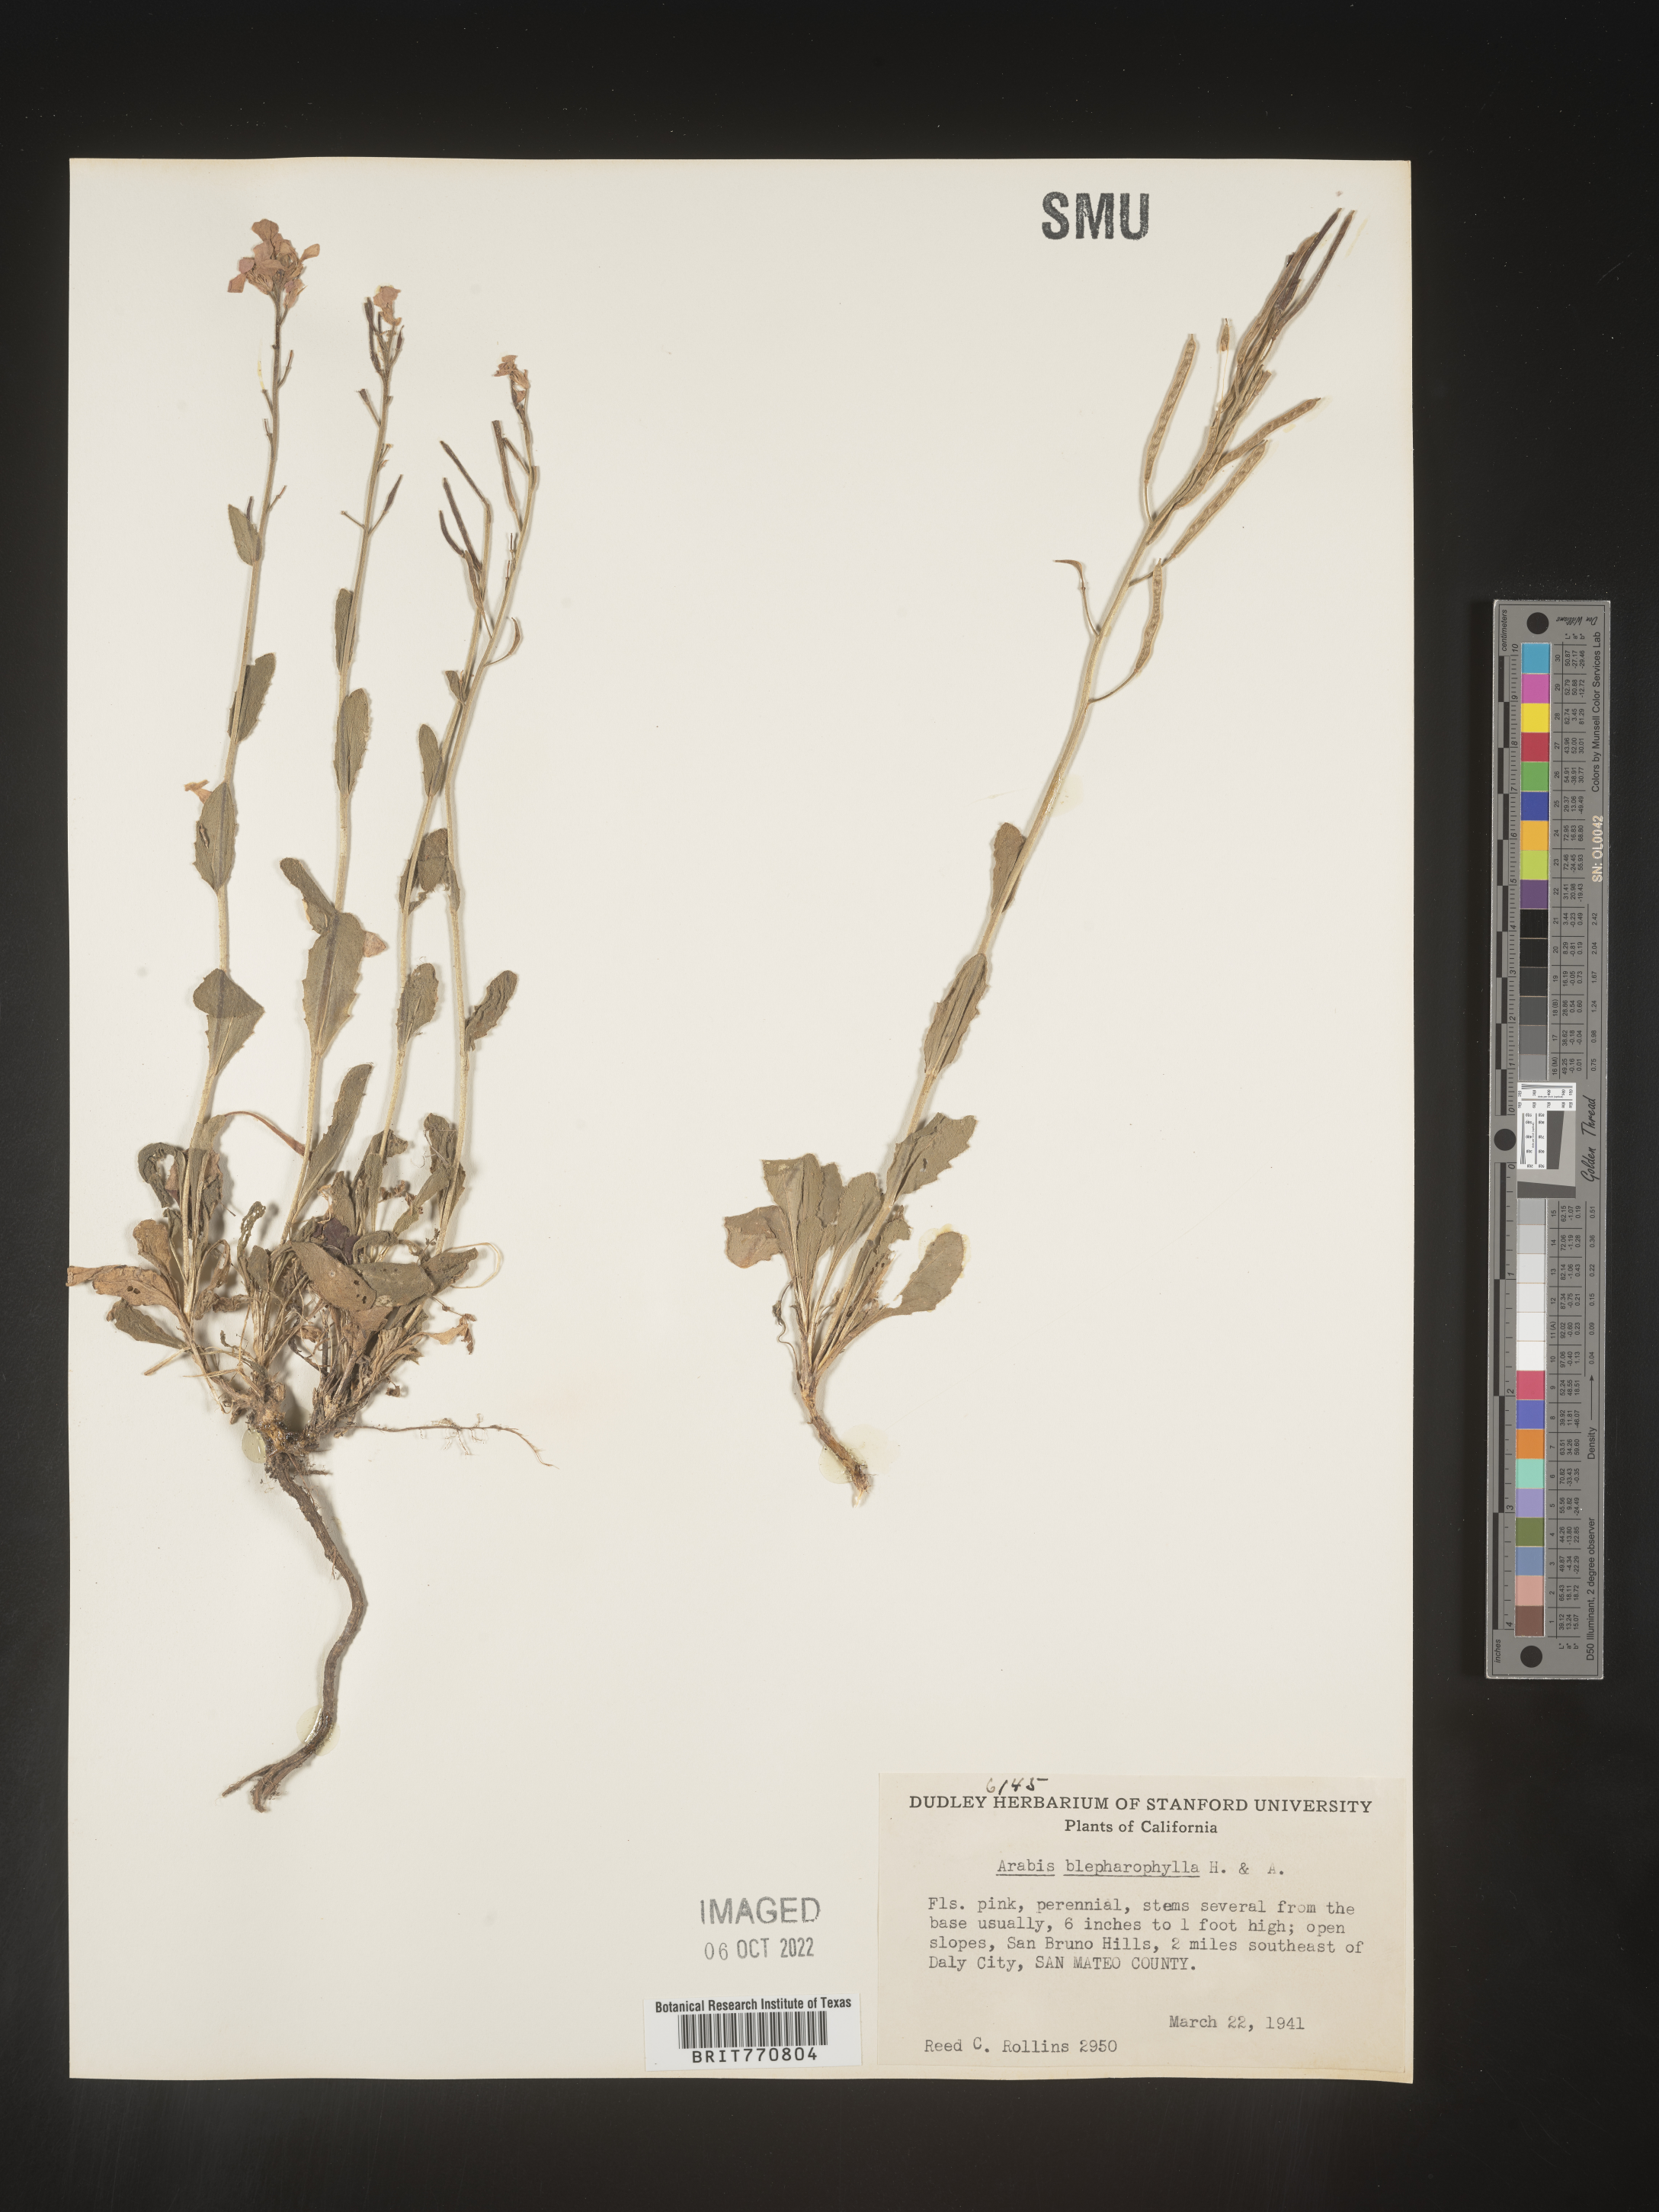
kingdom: Plantae
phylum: Tracheophyta
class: Magnoliopsida
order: Brassicales
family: Brassicaceae
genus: Arabis
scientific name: Arabis
